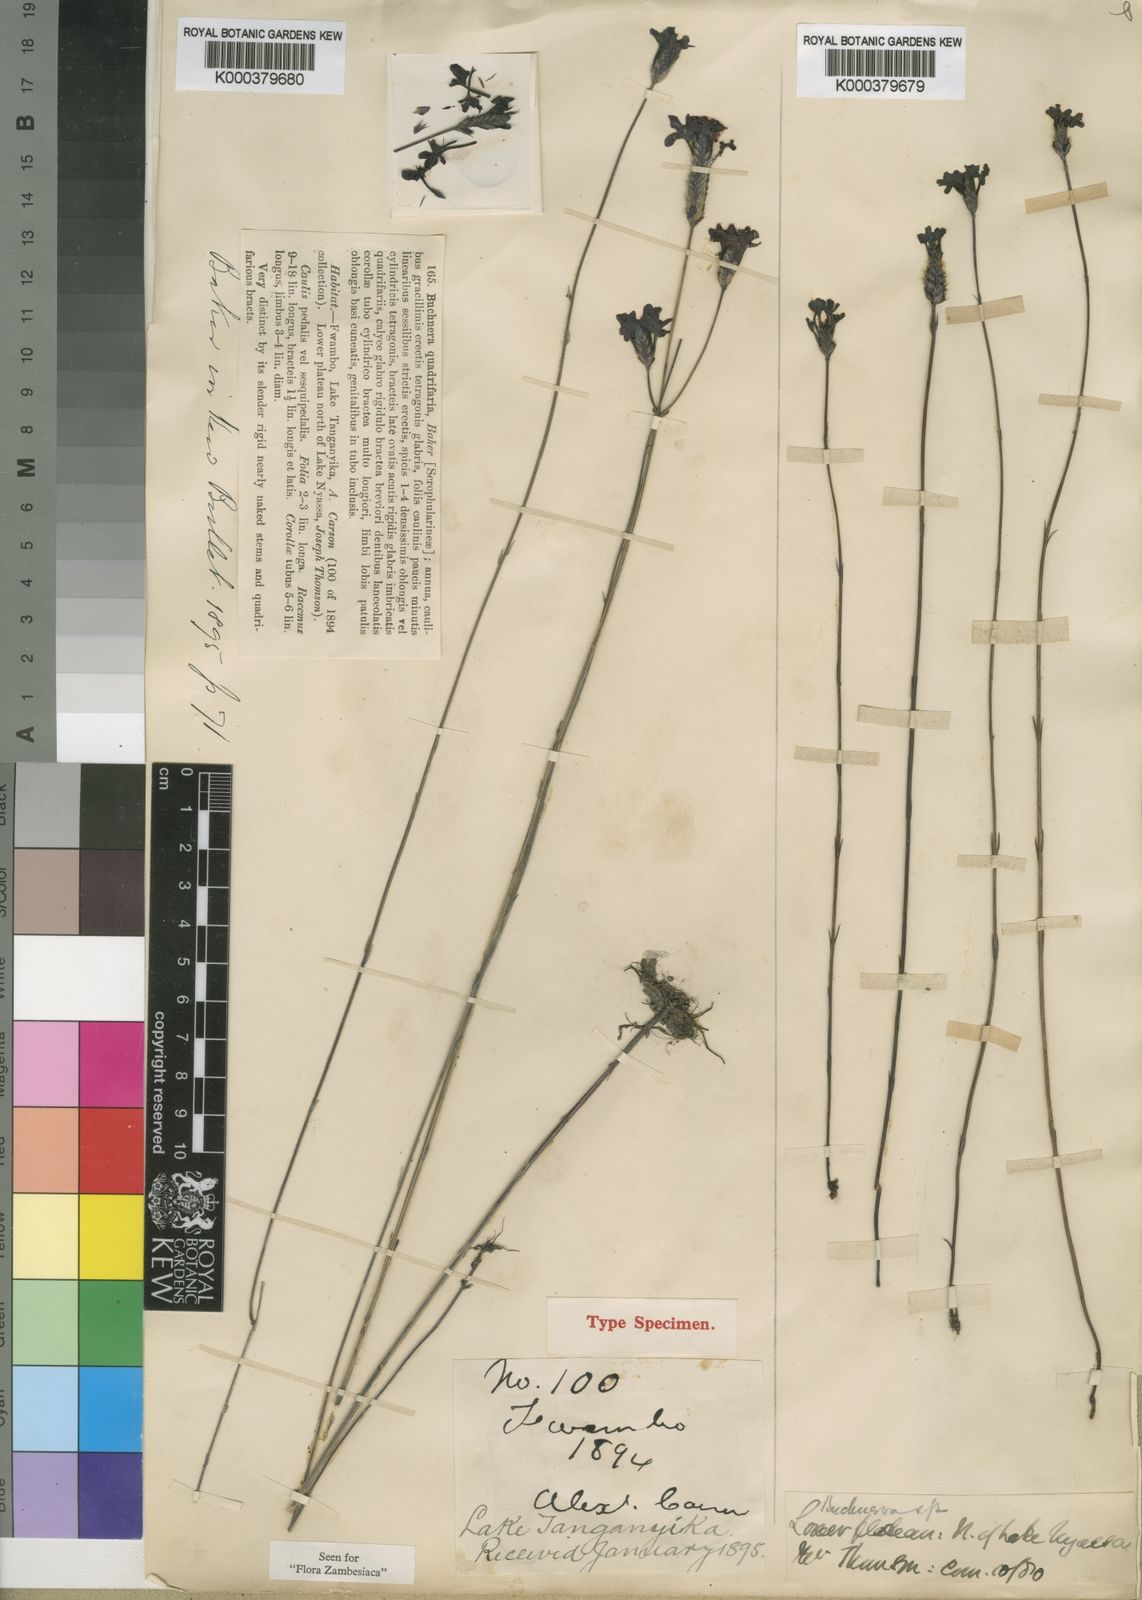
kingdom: Plantae
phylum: Tracheophyta
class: Magnoliopsida
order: Lamiales
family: Orobanchaceae
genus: Buchnera
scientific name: Buchnera quadrifaria
